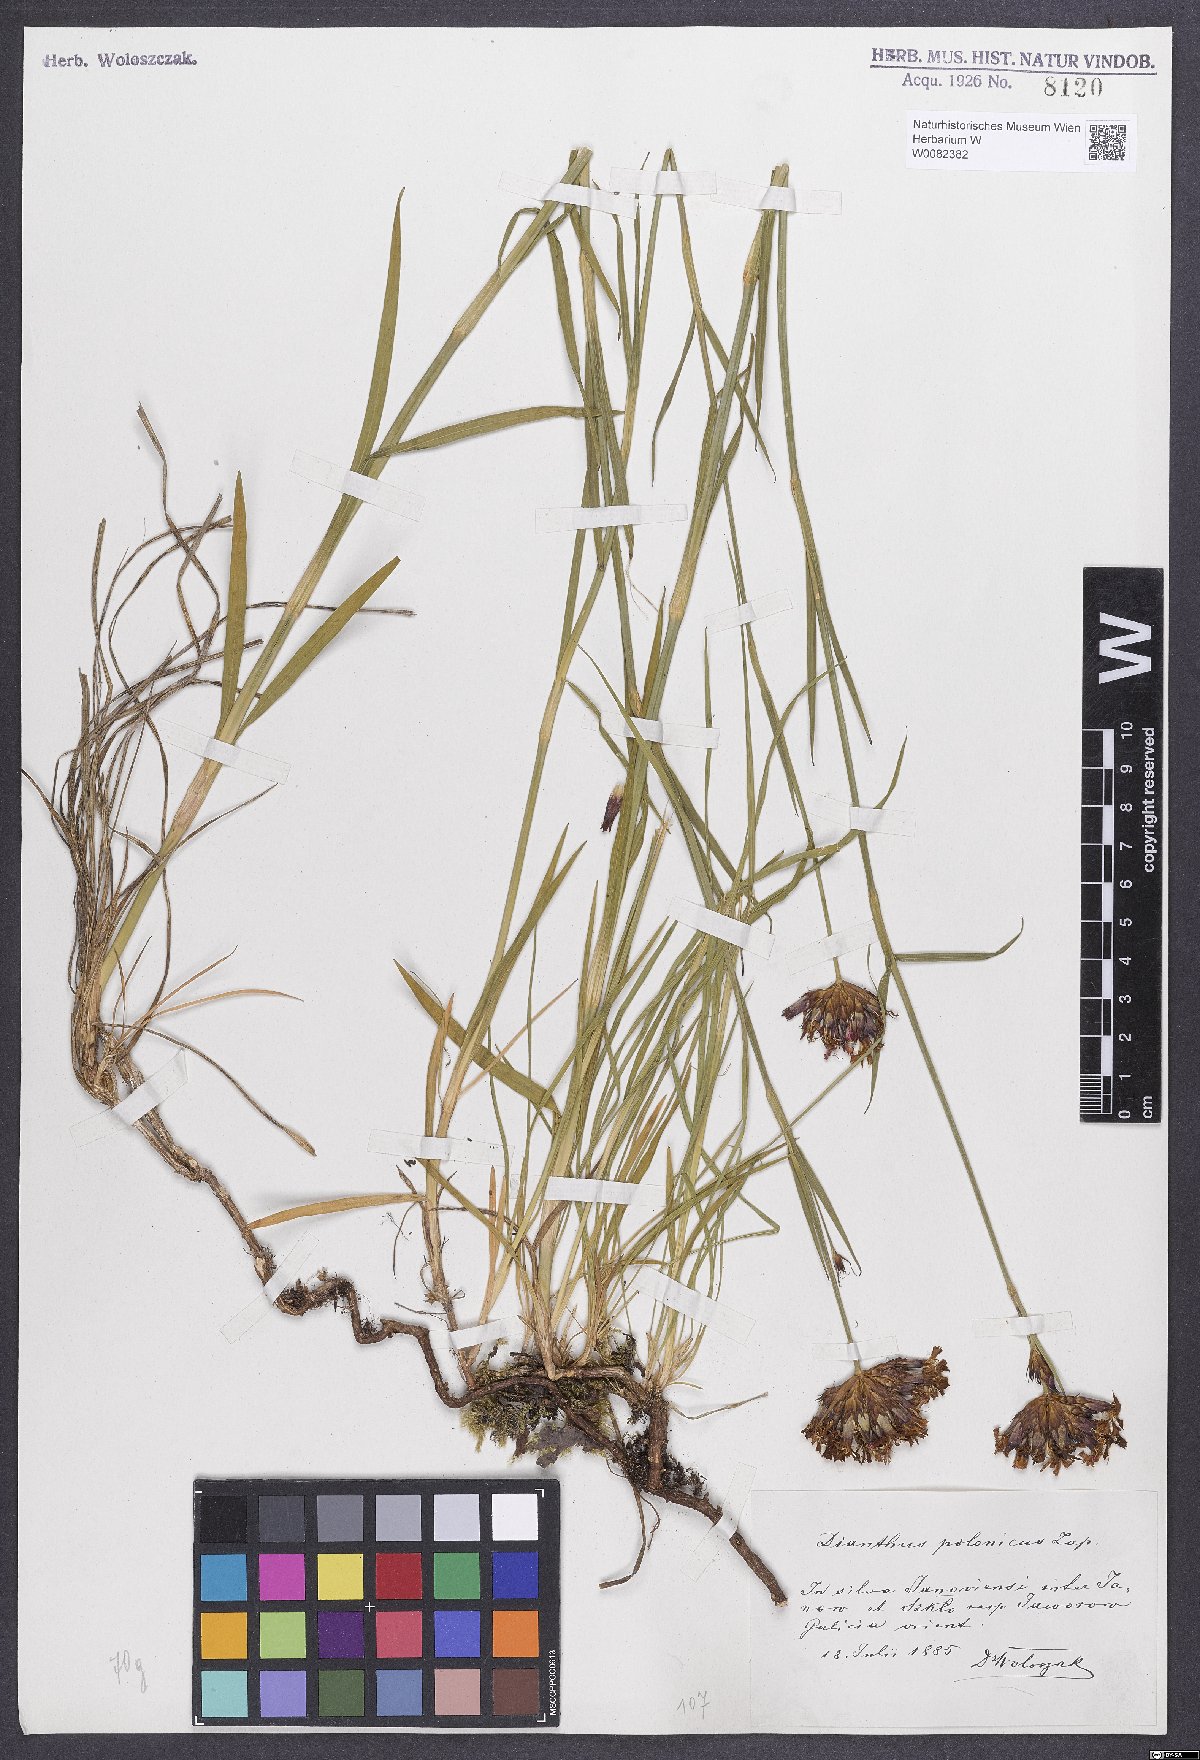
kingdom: Plantae
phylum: Tracheophyta
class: Magnoliopsida
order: Caryophyllales
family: Caryophyllaceae
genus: Dianthus
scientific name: Dianthus carthusianorum
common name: Carthusian pink
